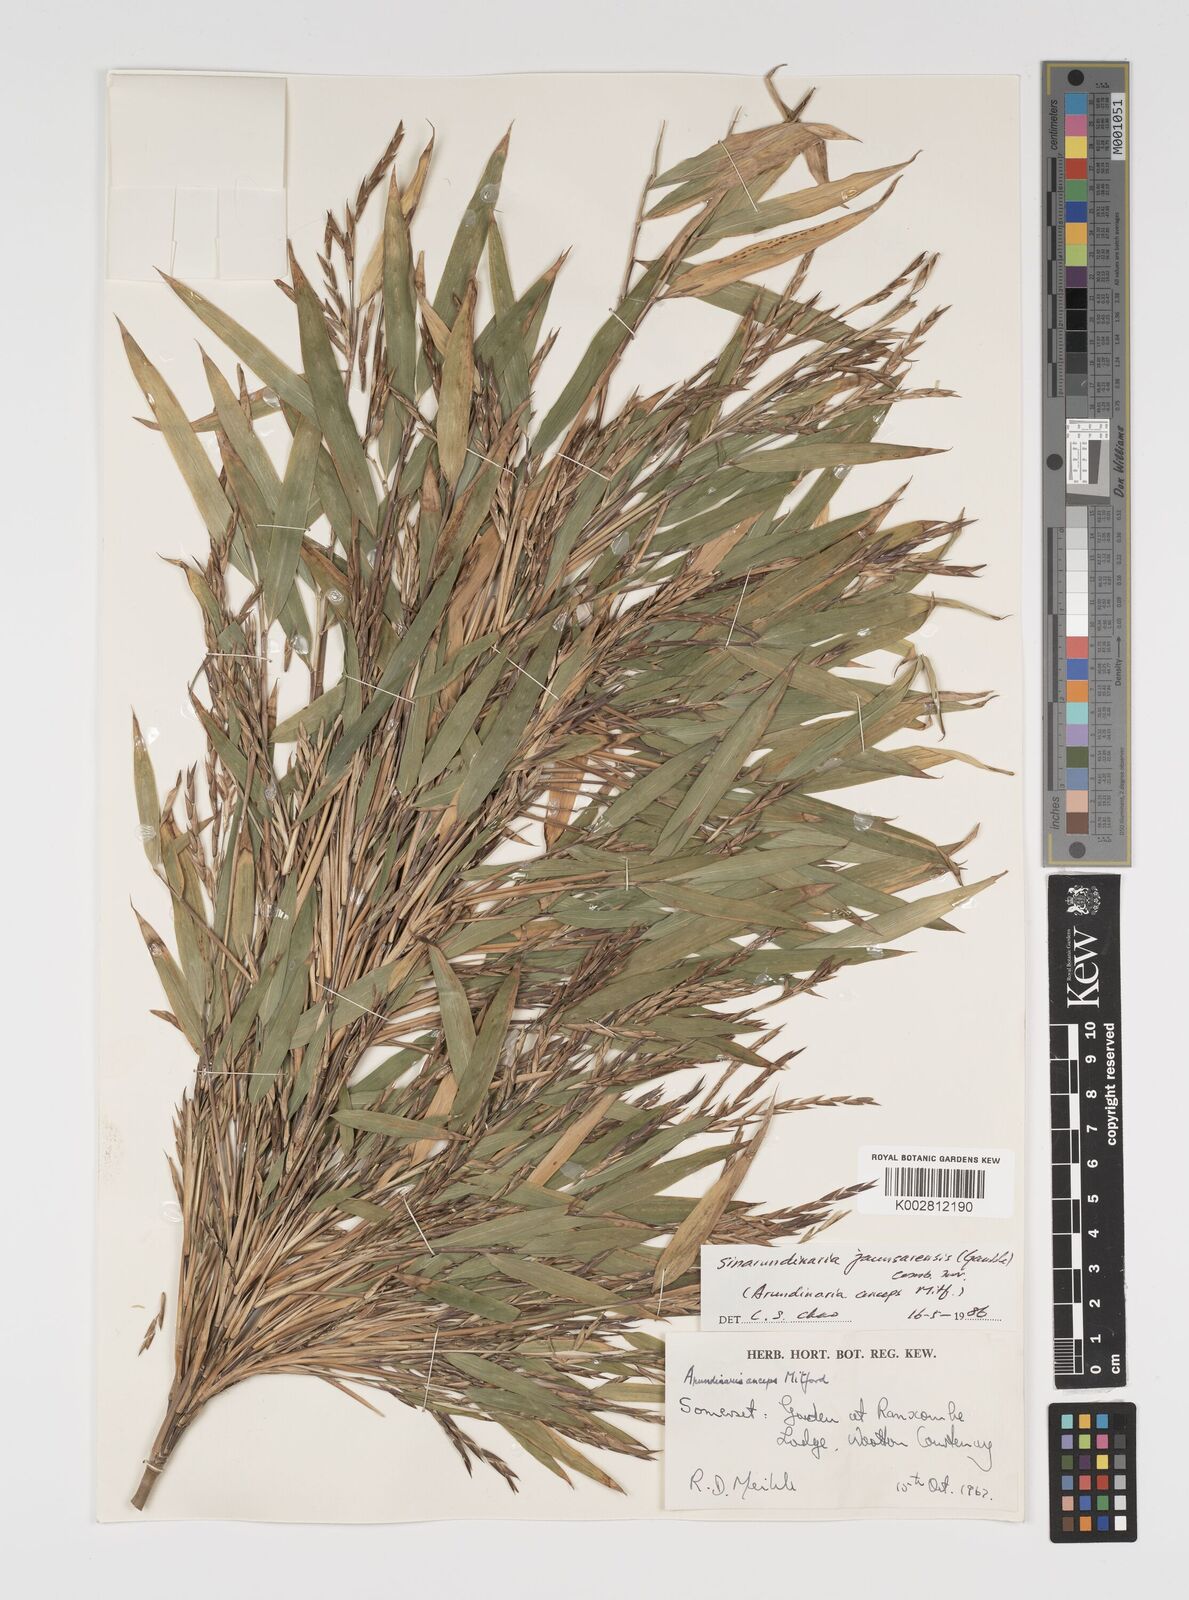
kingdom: Plantae
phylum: Tracheophyta
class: Liliopsida
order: Poales
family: Poaceae
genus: Yushania
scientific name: Yushania anceps
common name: Indian fountain-bamboo
